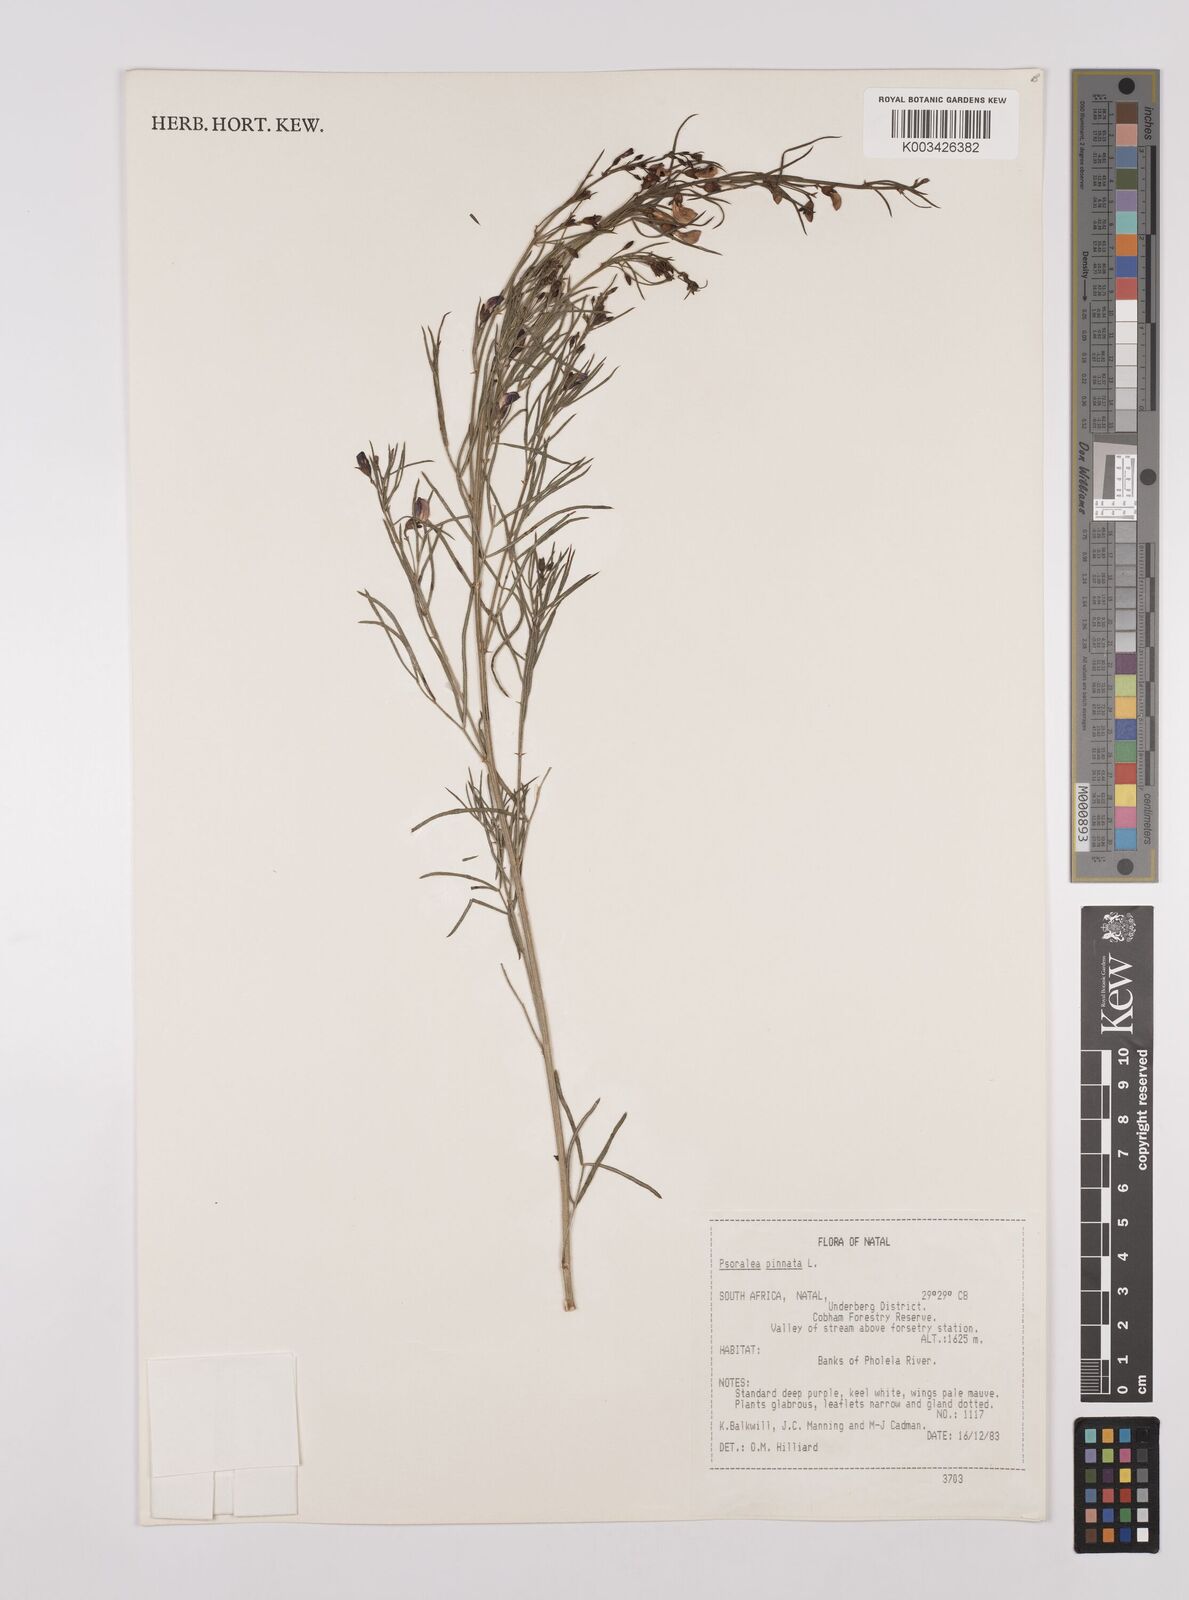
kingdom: Plantae
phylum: Tracheophyta
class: Magnoliopsida
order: Fabales
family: Fabaceae
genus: Psoralea
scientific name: Psoralea rhizotoma
